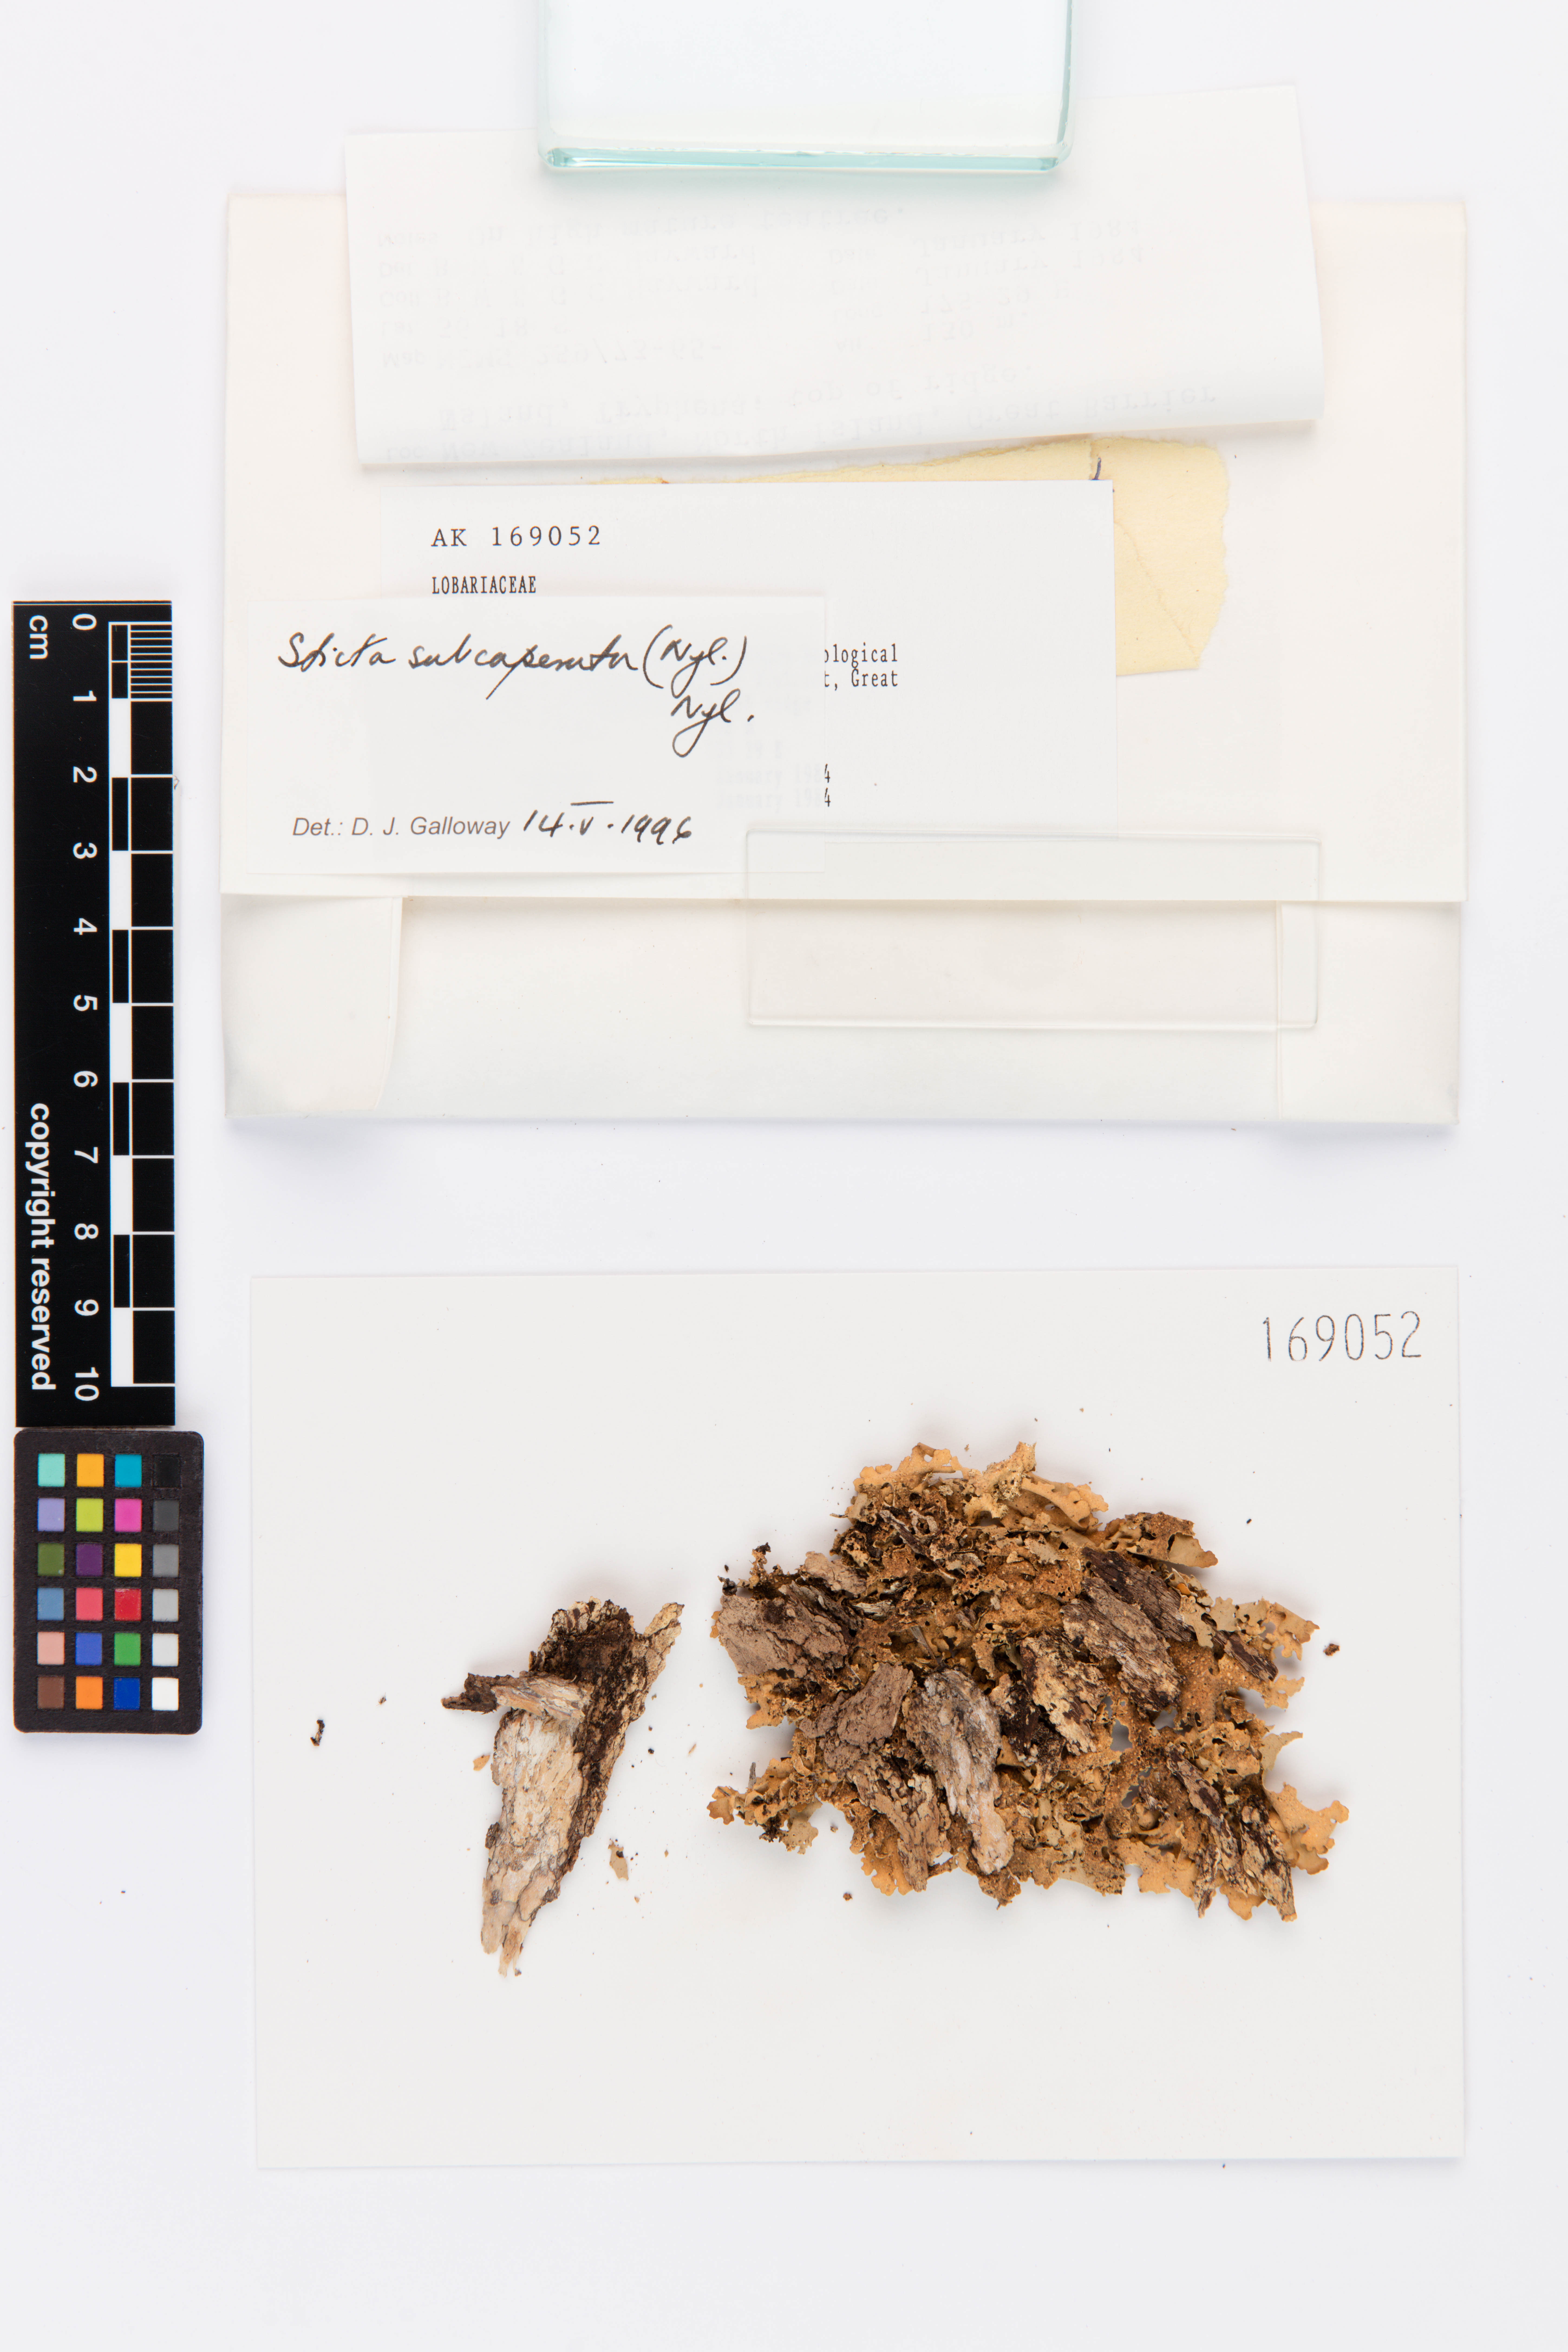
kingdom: Fungi
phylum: Ascomycota
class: Lecanoromycetes
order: Peltigerales
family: Lobariaceae
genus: Sticta
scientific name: Sticta subcaperata
